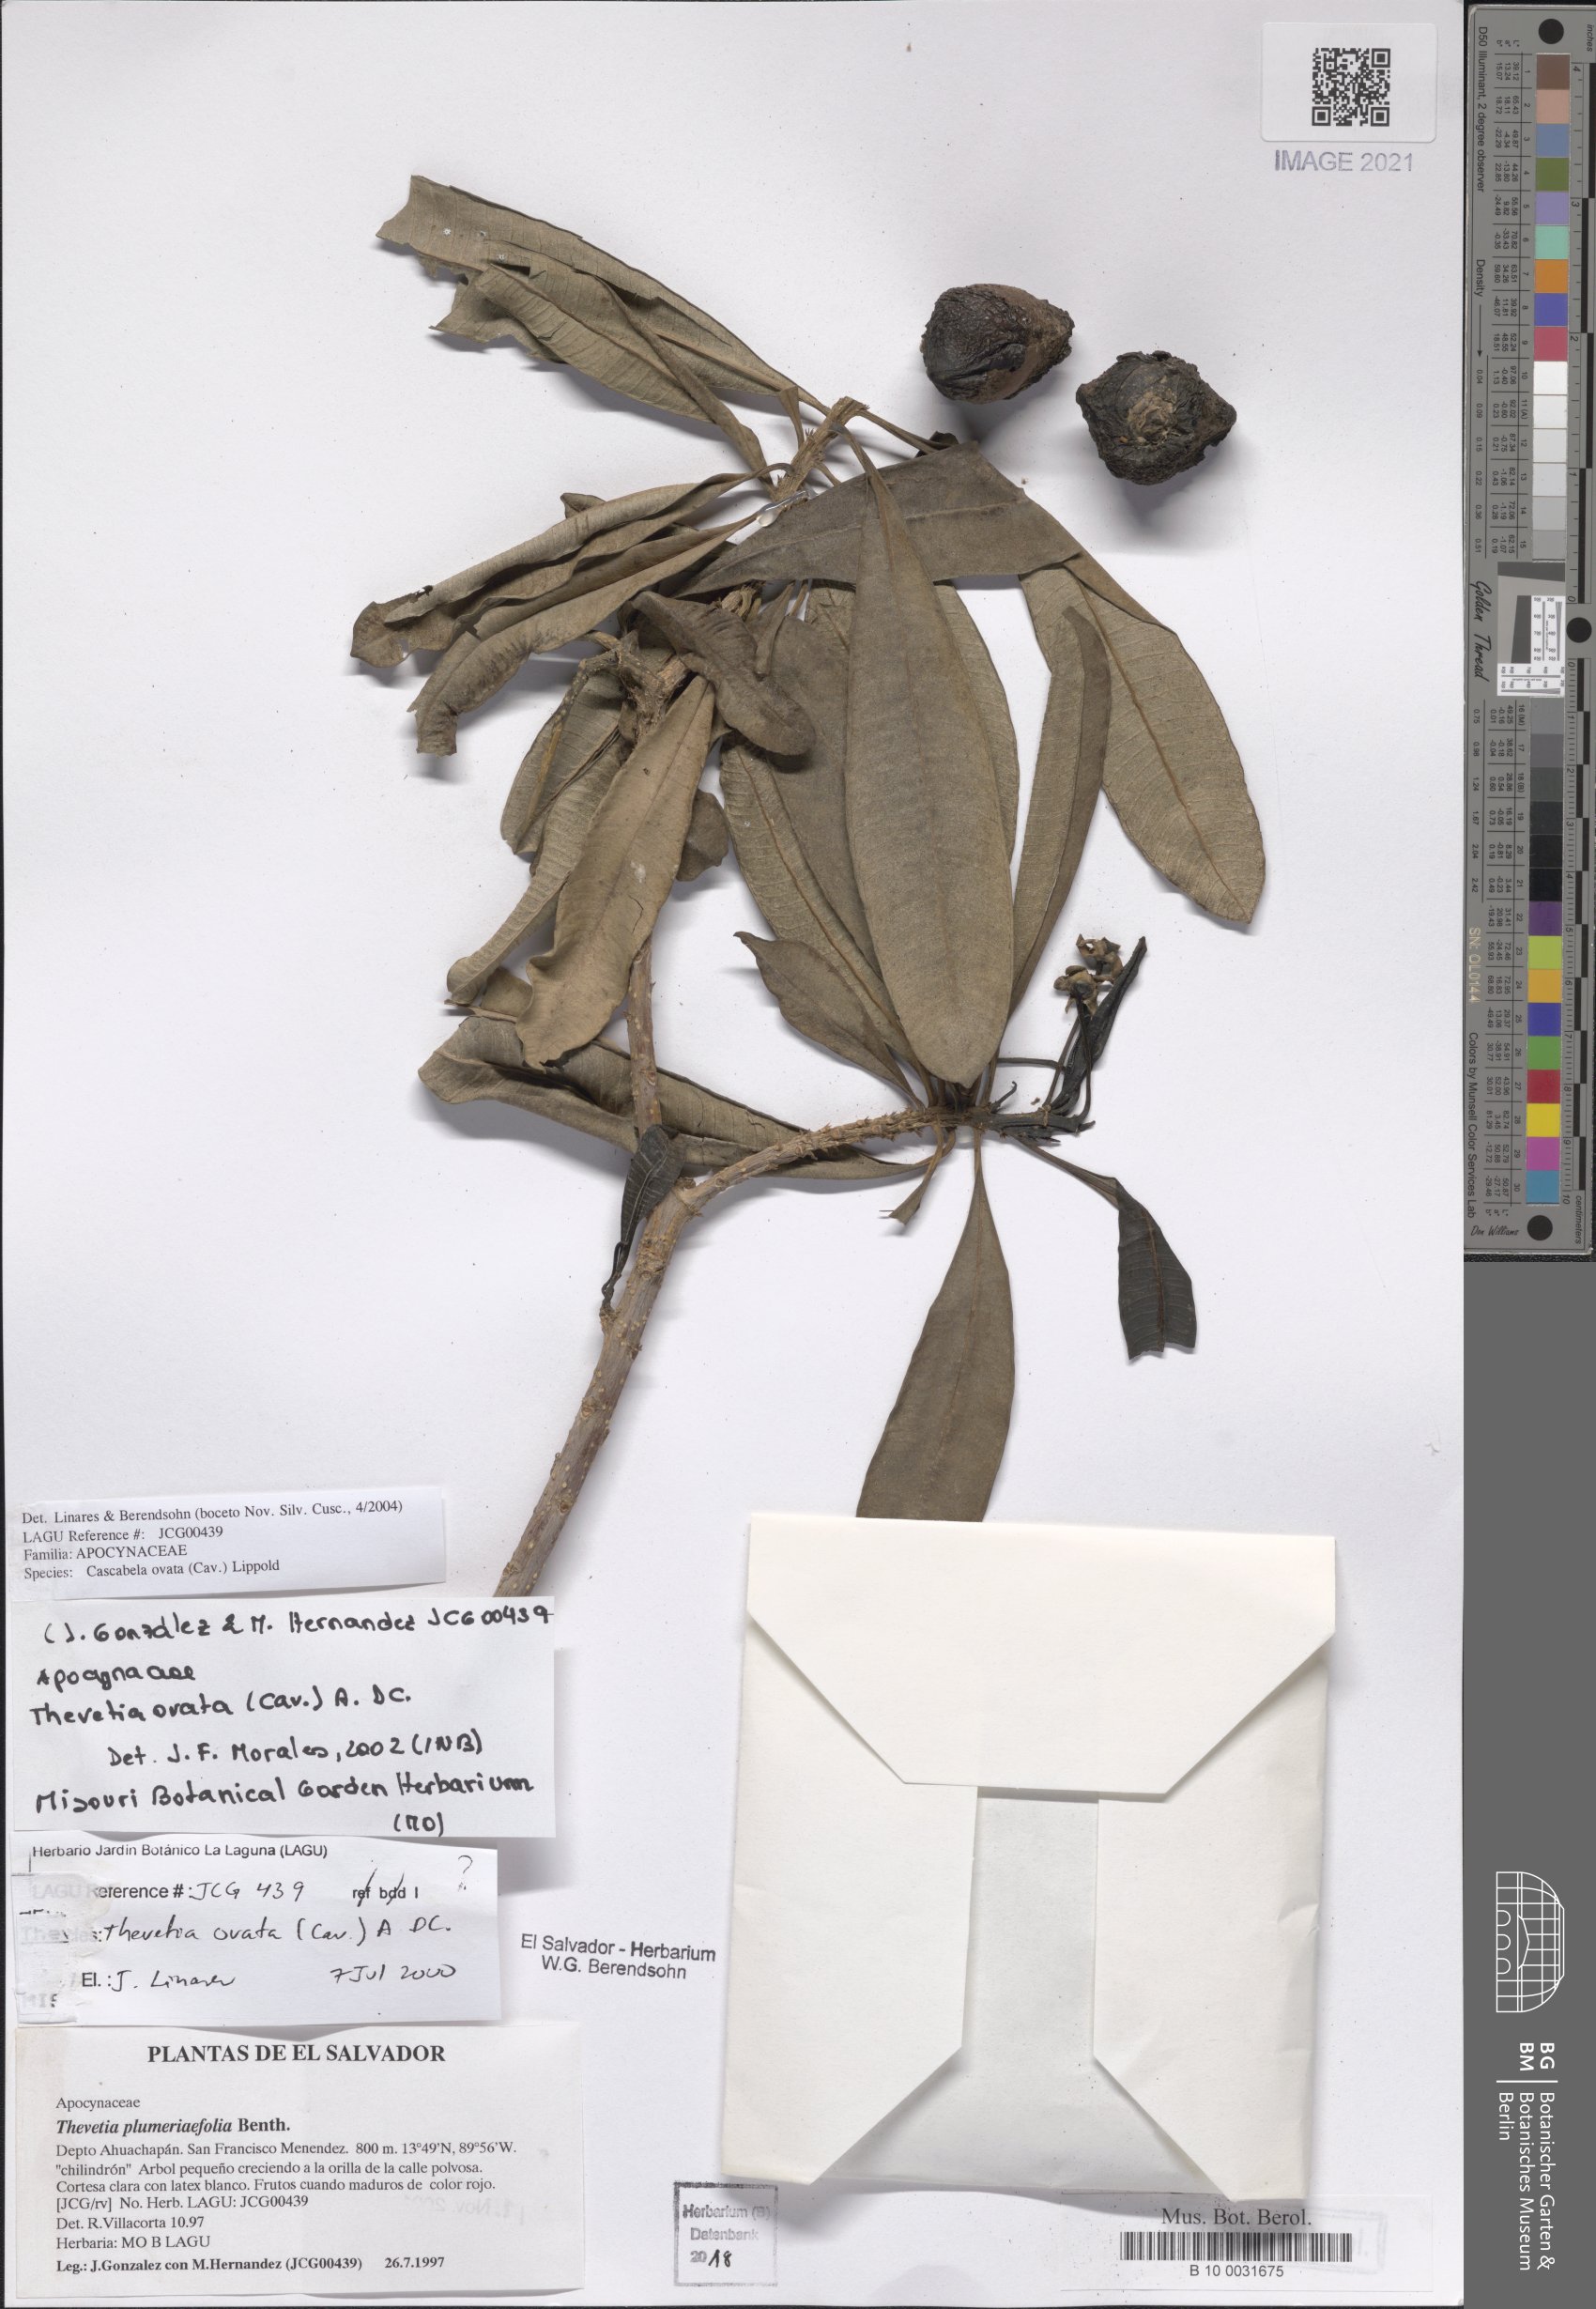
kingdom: Plantae
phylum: Tracheophyta
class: Magnoliopsida
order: Gentianales
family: Apocynaceae
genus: Cascabela
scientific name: Cascabela ovata
